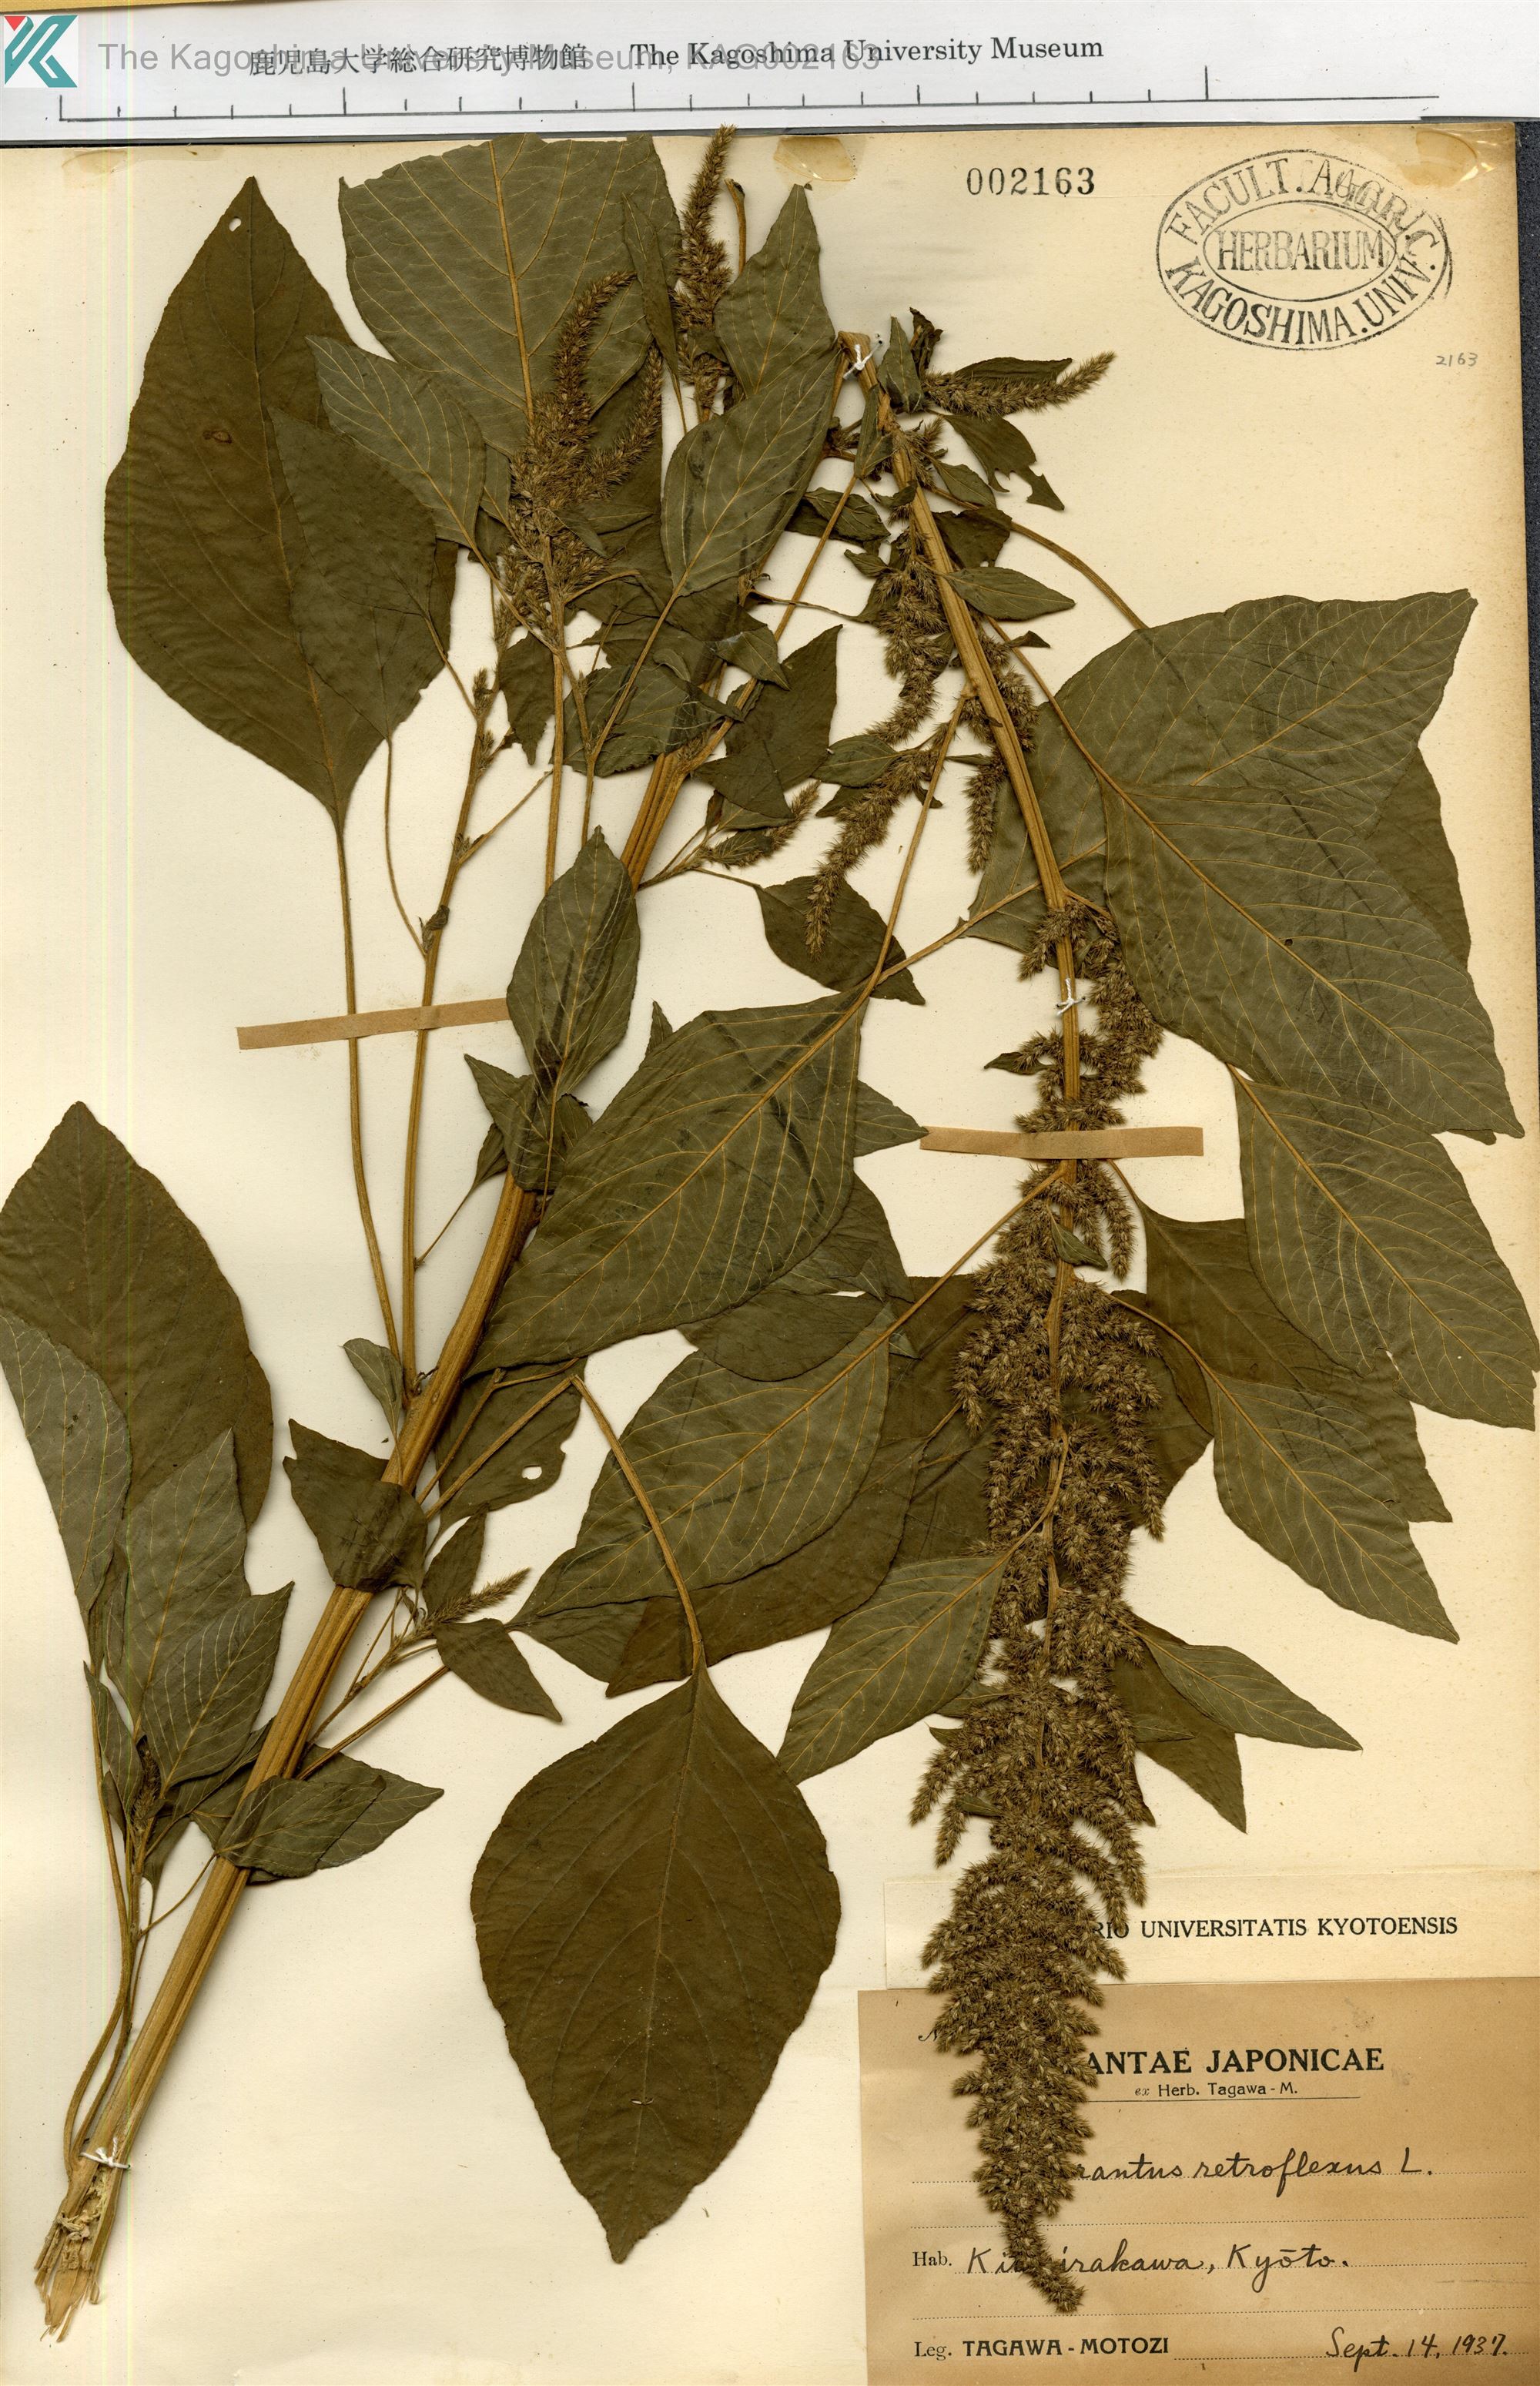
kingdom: Plantae
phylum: Tracheophyta
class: Magnoliopsida
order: Caryophyllales
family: Amaranthaceae
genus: Amaranthus
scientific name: Amaranthus retroflexus
